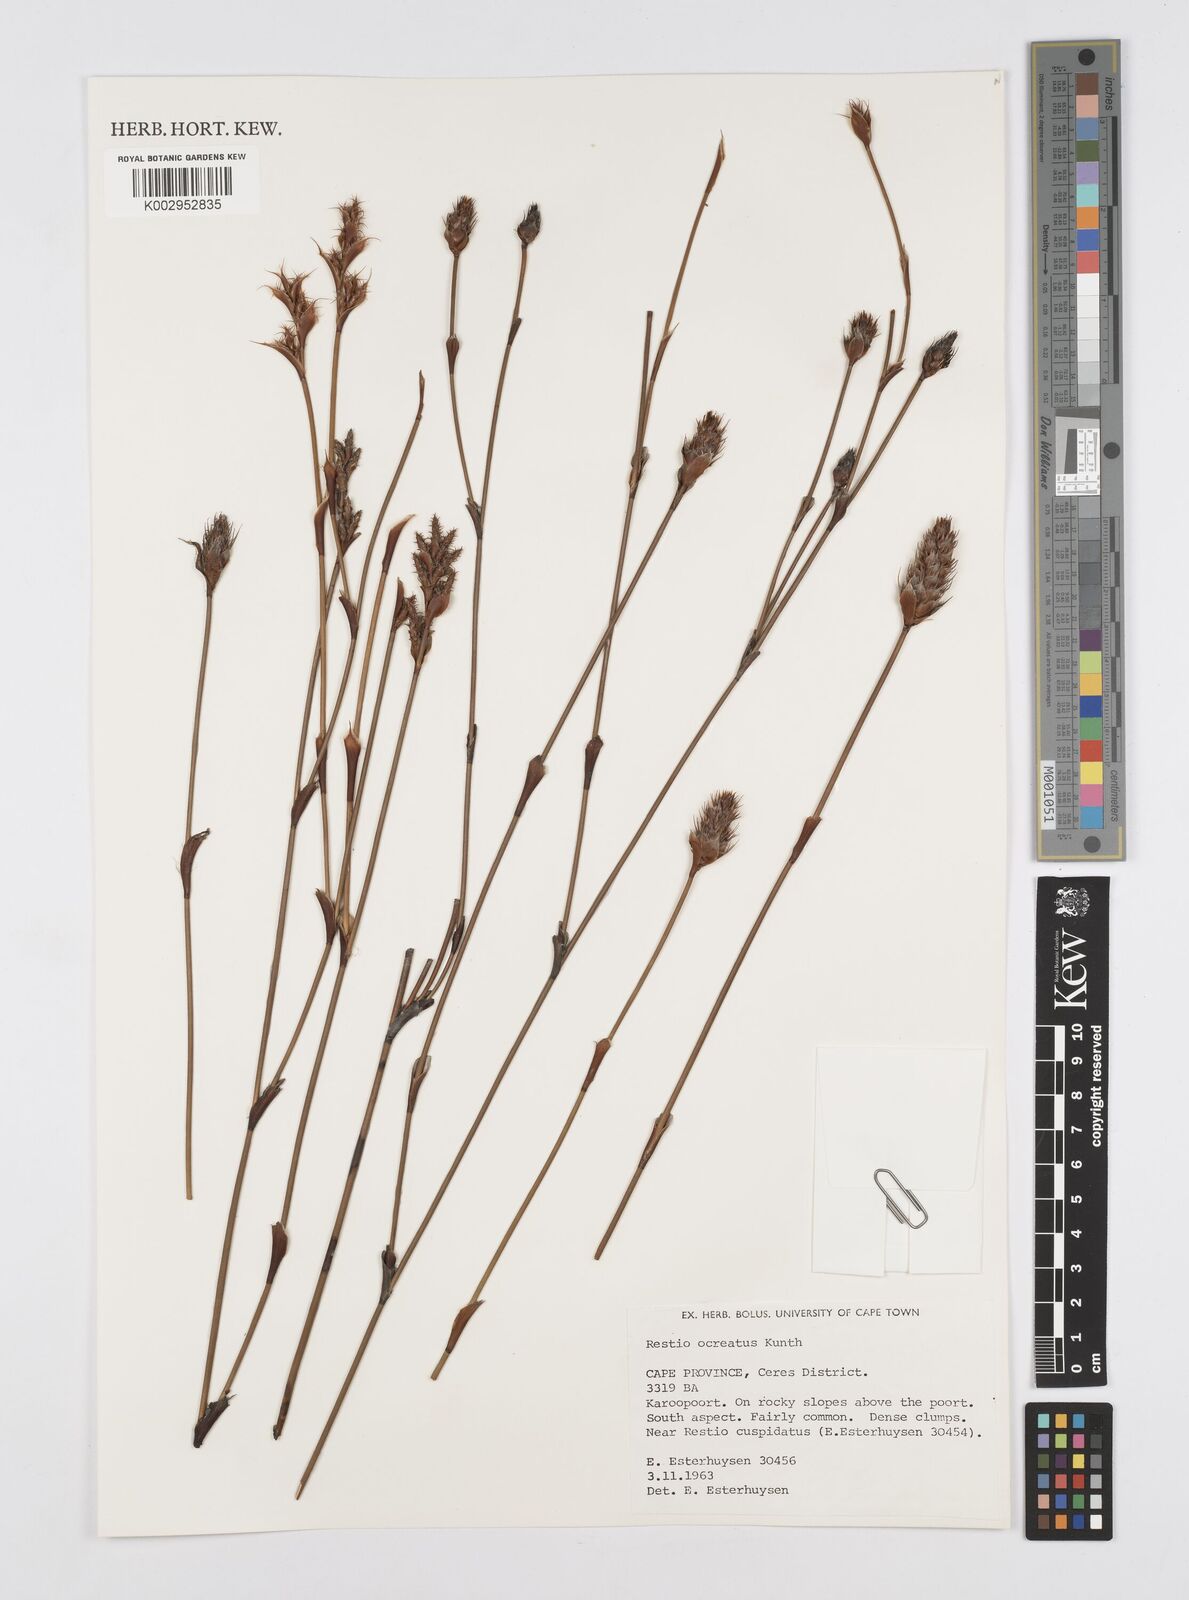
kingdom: Plantae
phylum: Tracheophyta
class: Liliopsida
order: Poales
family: Restionaceae
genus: Restio
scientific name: Restio ocreatus
